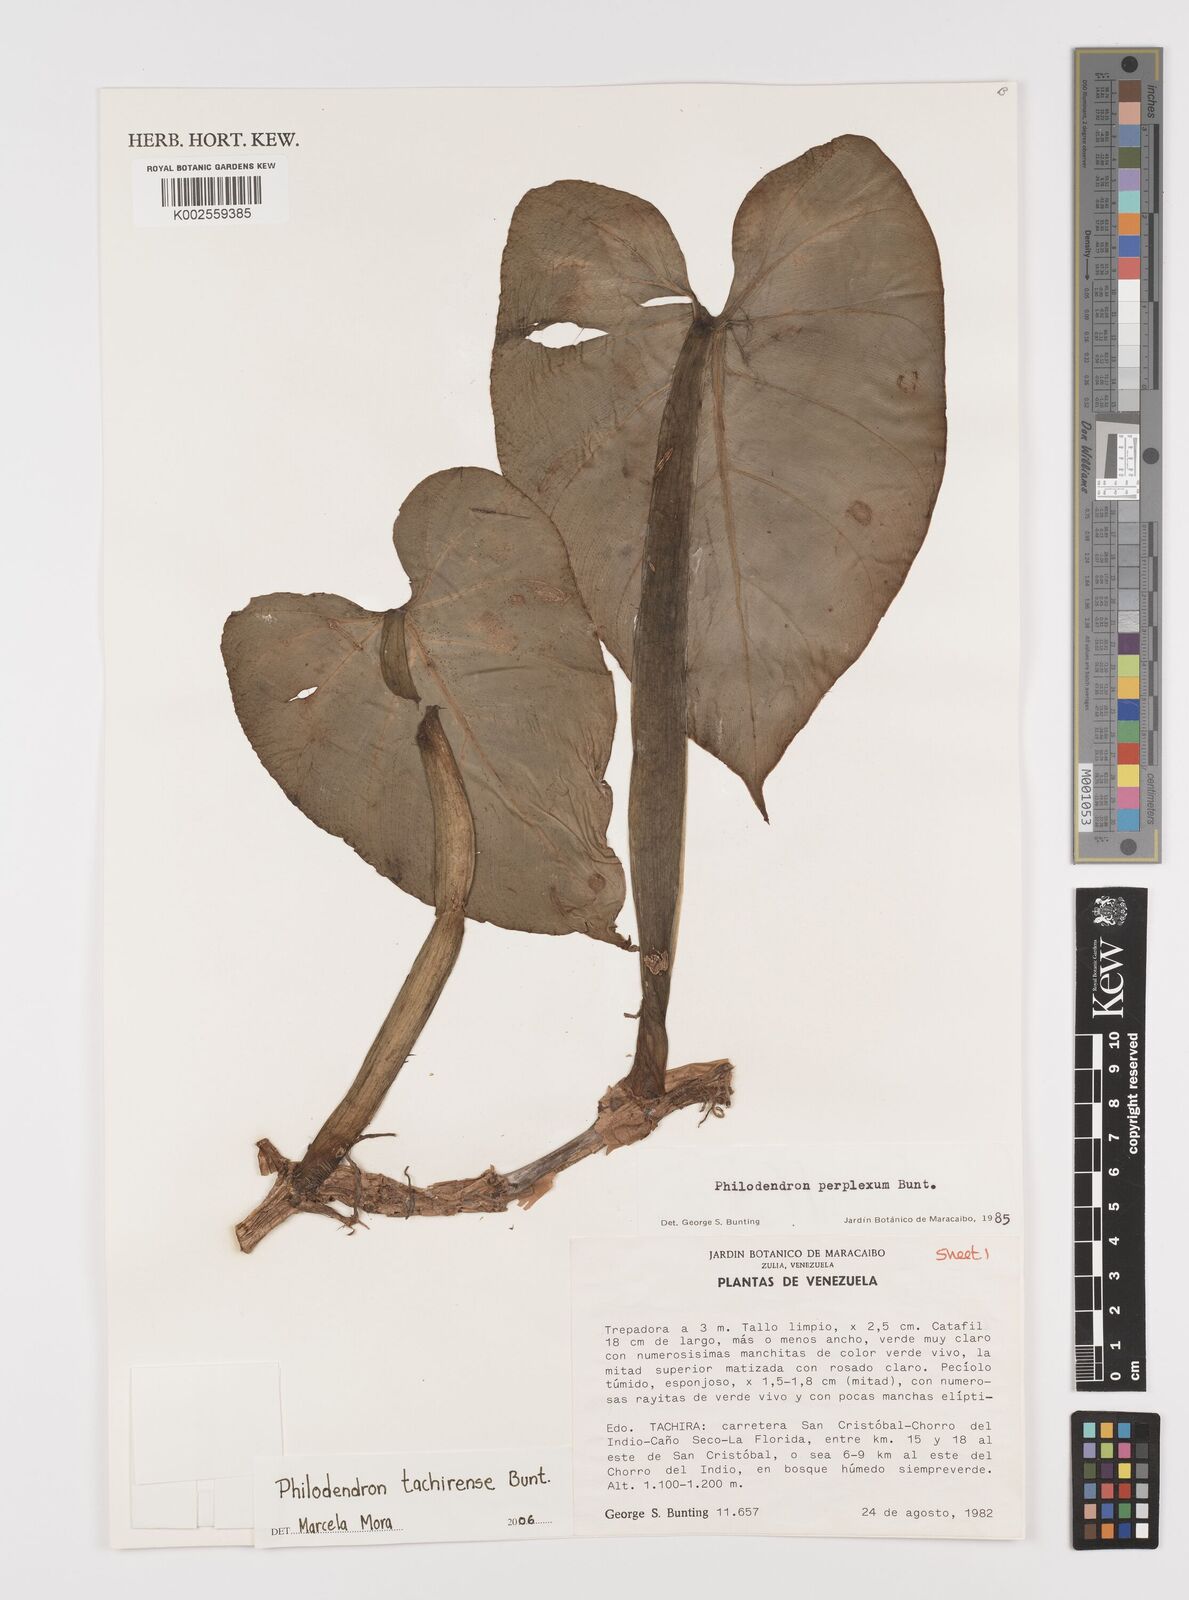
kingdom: Plantae
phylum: Tracheophyta
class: Liliopsida
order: Alismatales
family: Araceae
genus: Philodendron
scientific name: Philodendron tachirense
